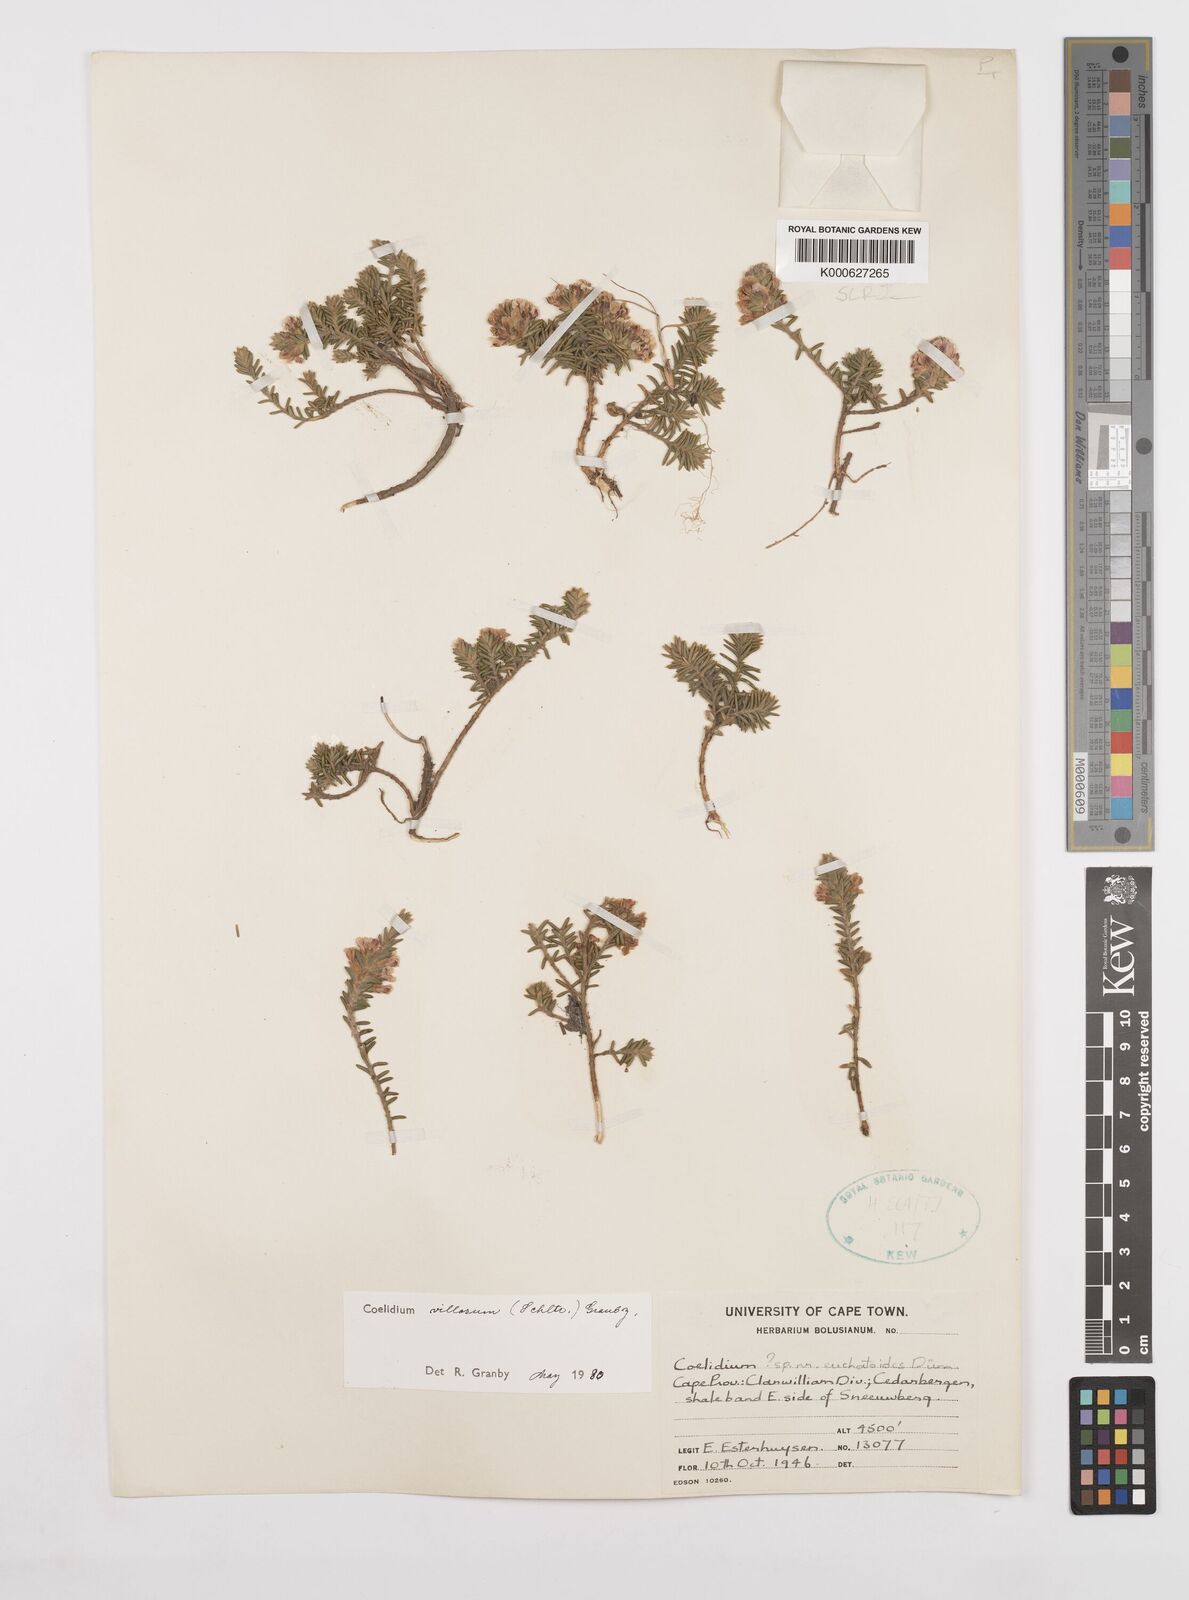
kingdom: Plantae
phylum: Tracheophyta
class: Magnoliopsida
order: Fabales
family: Fabaceae
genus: Amphithalea
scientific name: Amphithalea villosa
